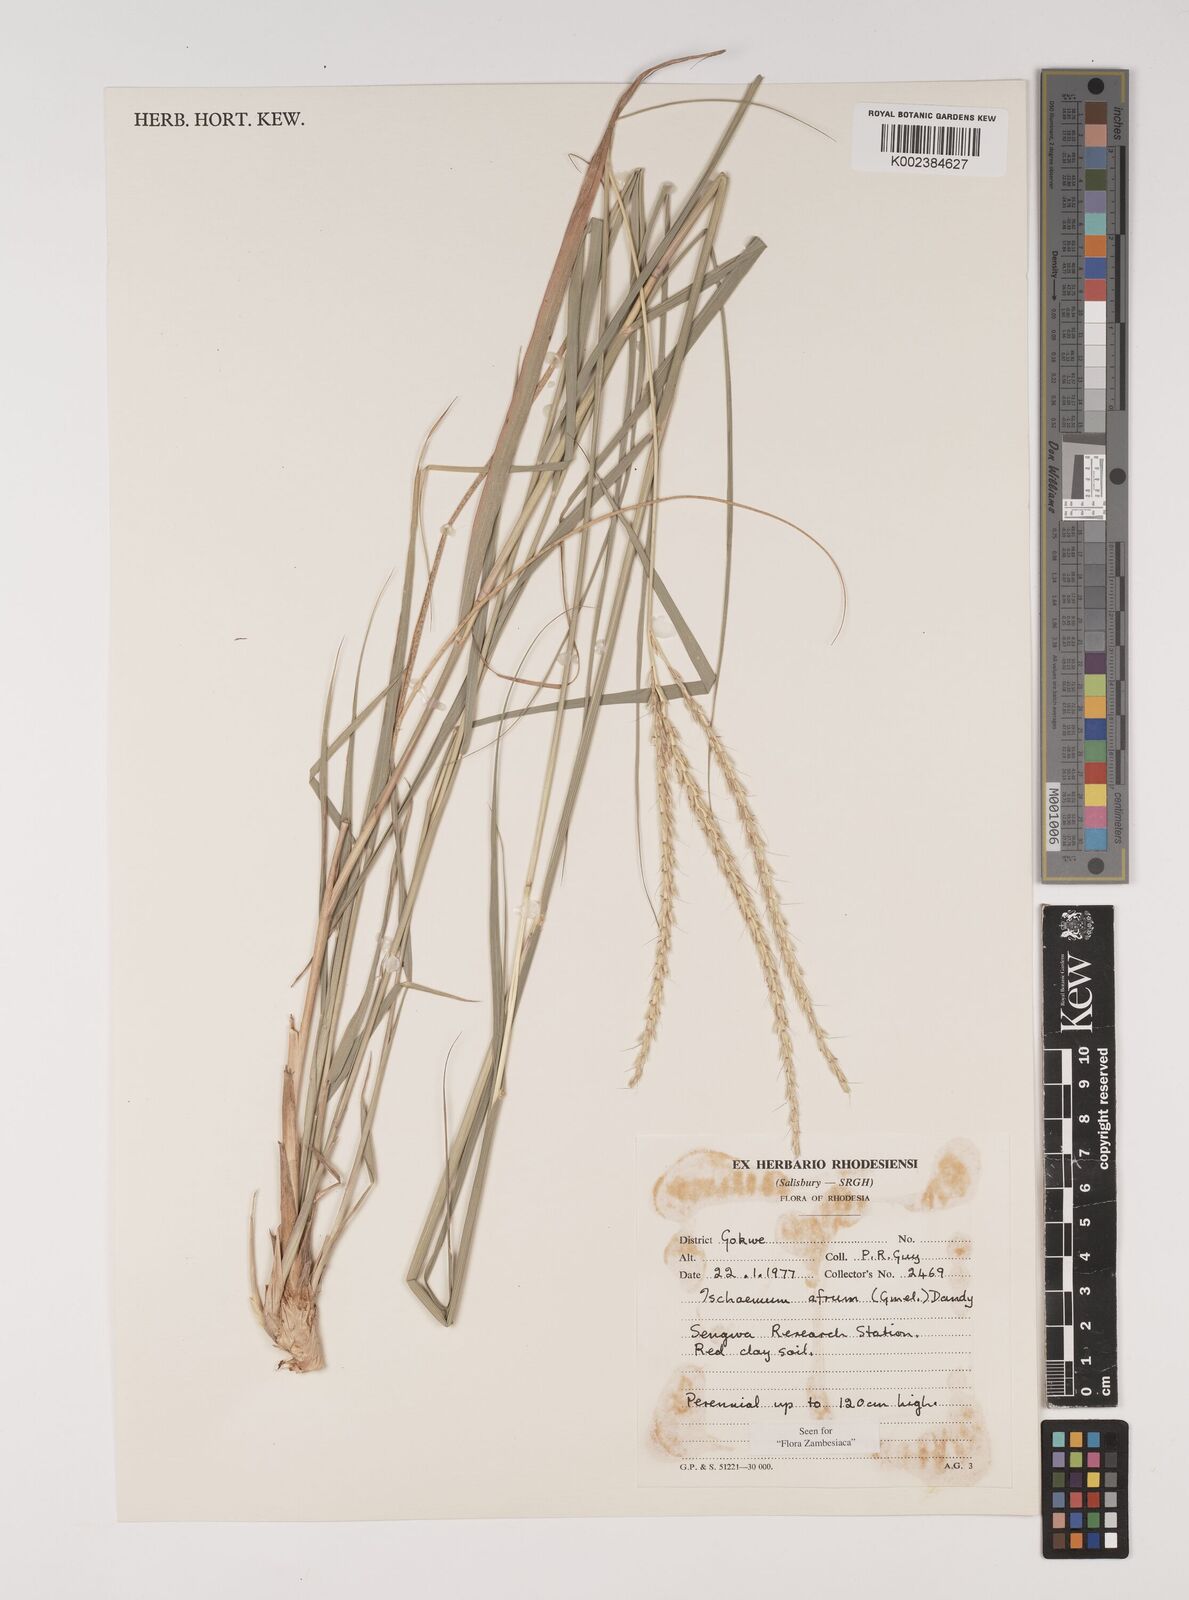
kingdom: Plantae
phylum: Tracheophyta
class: Liliopsida
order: Poales
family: Poaceae
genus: Ischaemum
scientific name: Ischaemum afrum
